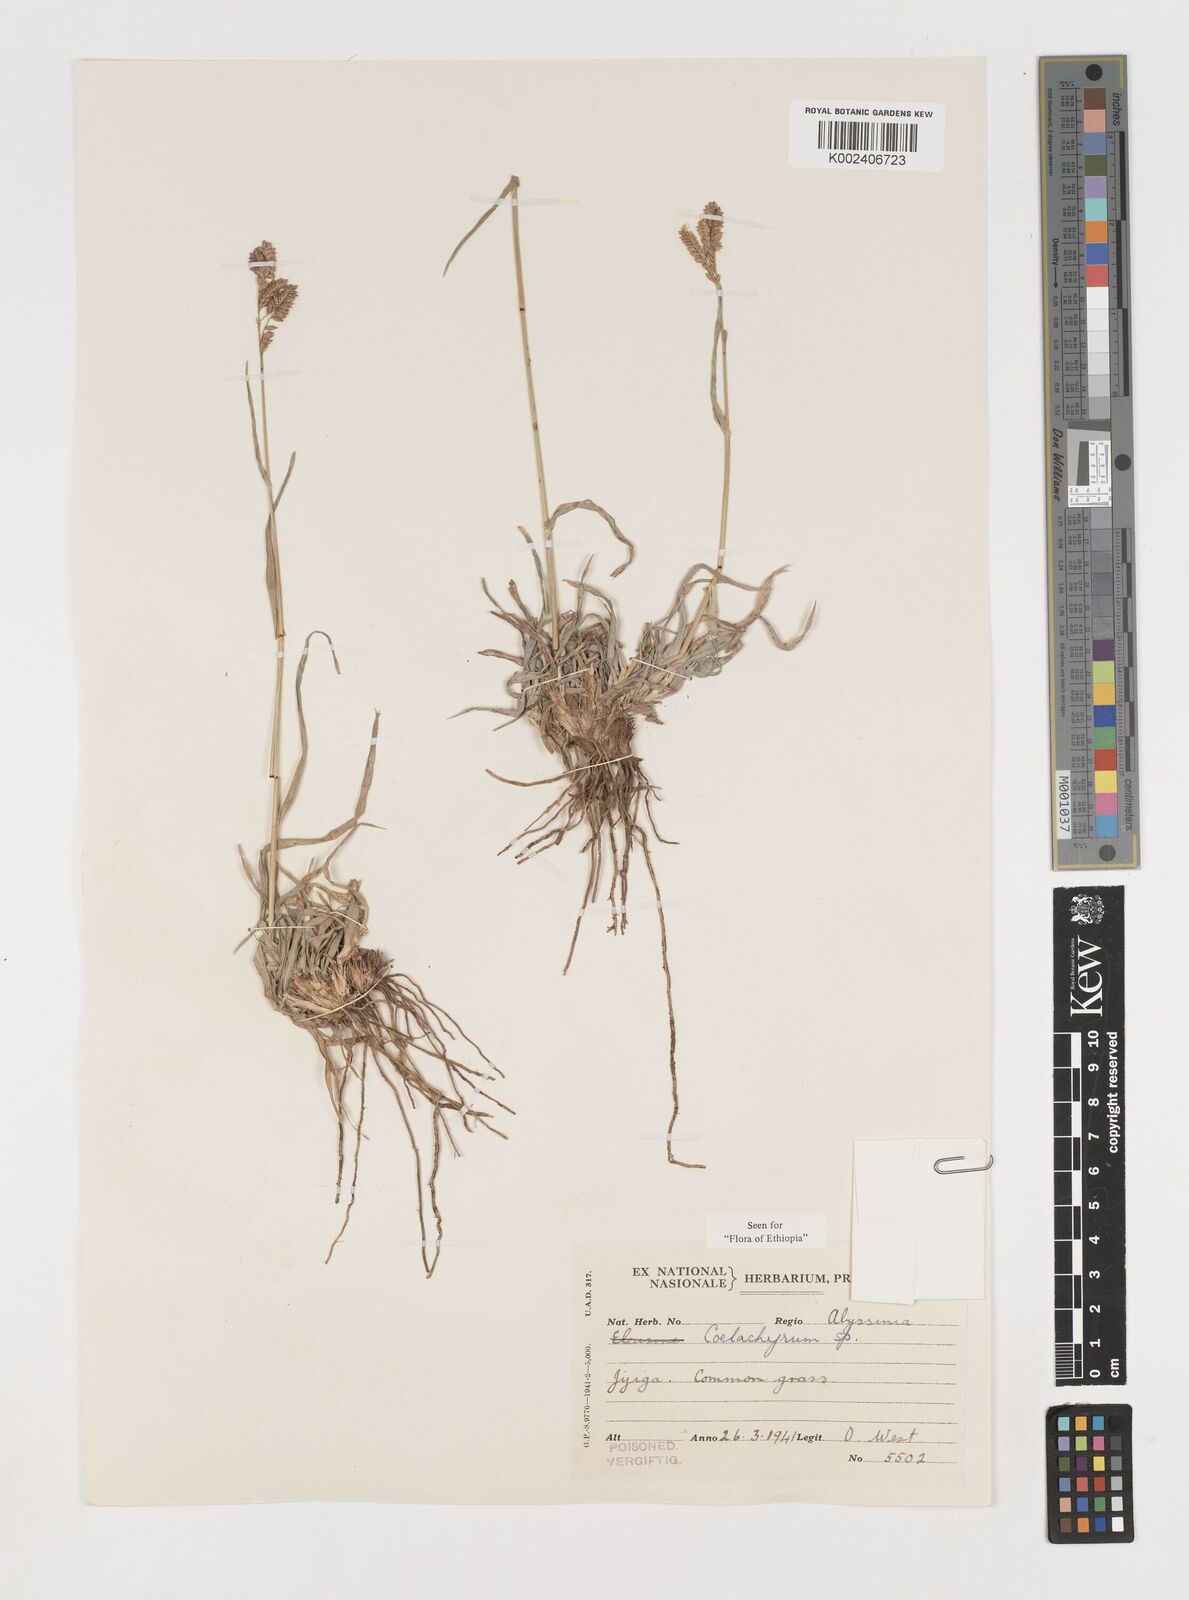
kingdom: Plantae
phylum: Tracheophyta
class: Liliopsida
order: Poales
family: Poaceae
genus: Coelachyrum
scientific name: Coelachyrum poiflorum
